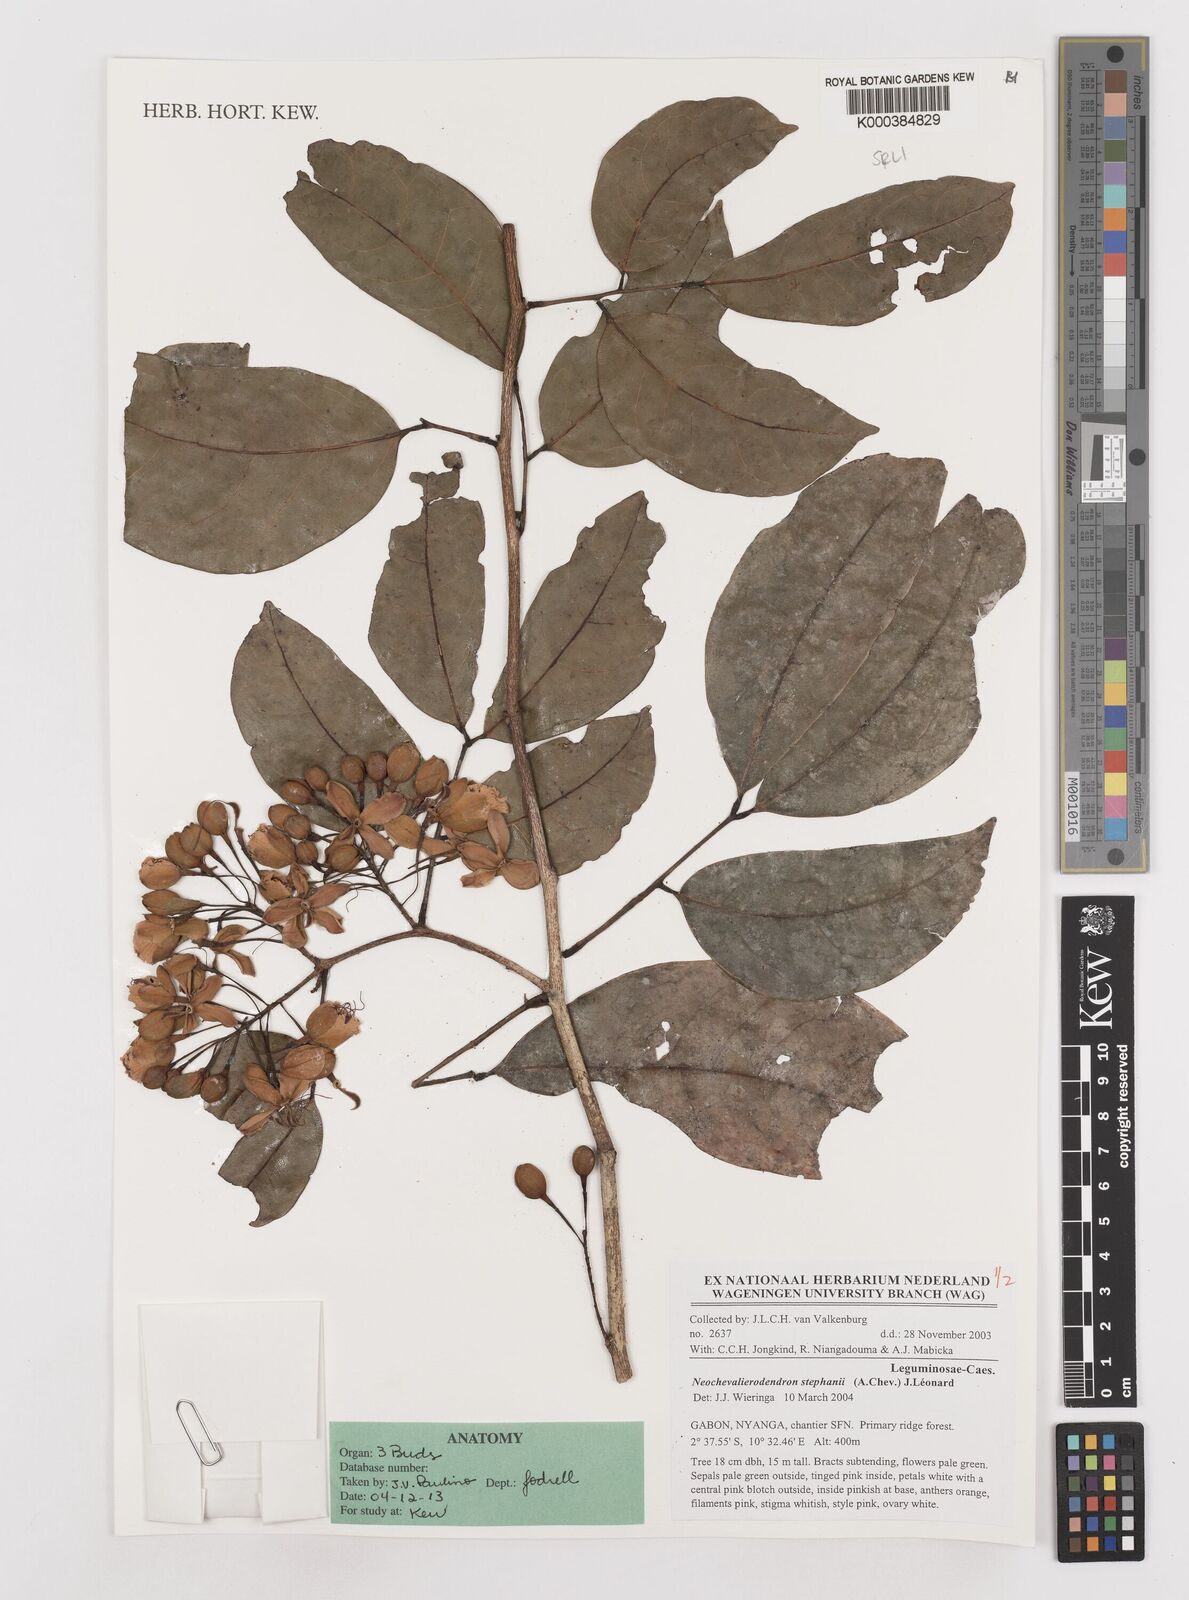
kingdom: Plantae
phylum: Tracheophyta
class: Magnoliopsida
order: Fabales
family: Fabaceae
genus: Neochevalierodendron
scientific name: Neochevalierodendron stephanii
